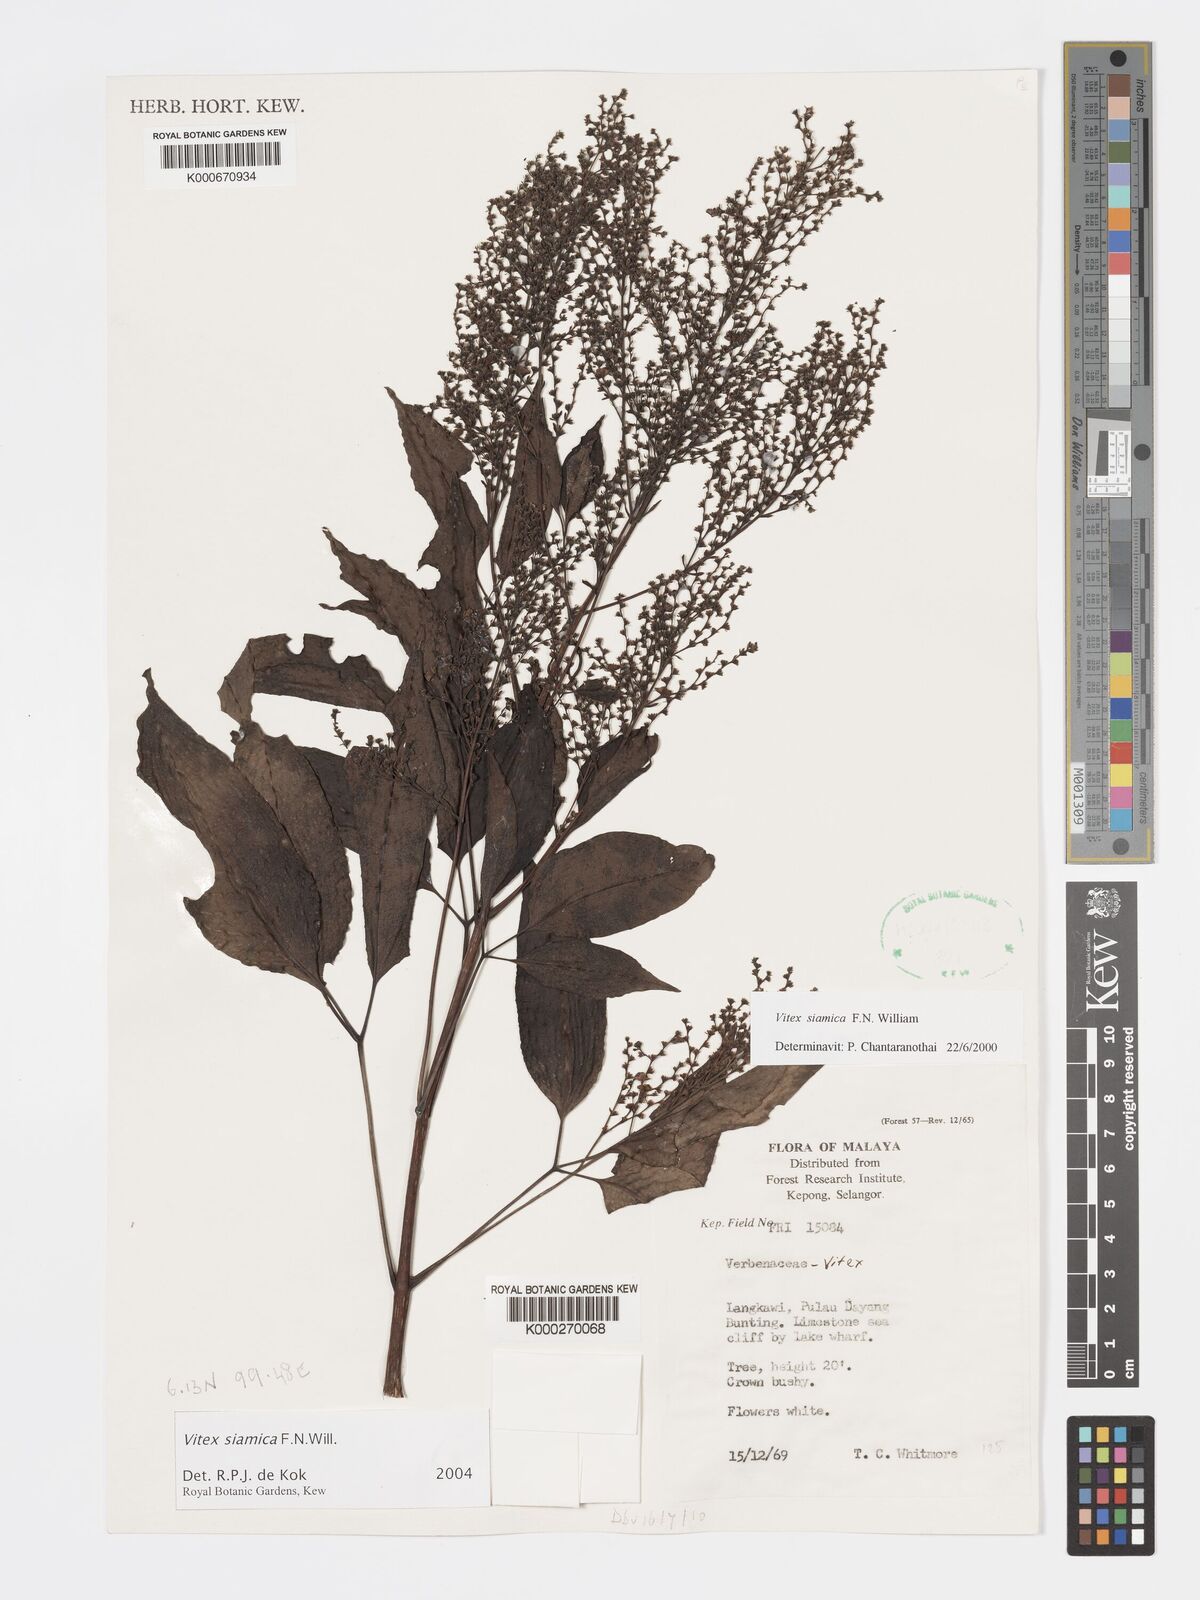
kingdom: Plantae
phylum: Tracheophyta
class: Magnoliopsida
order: Lamiales
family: Lamiaceae
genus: Vitex
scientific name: Vitex siamica
